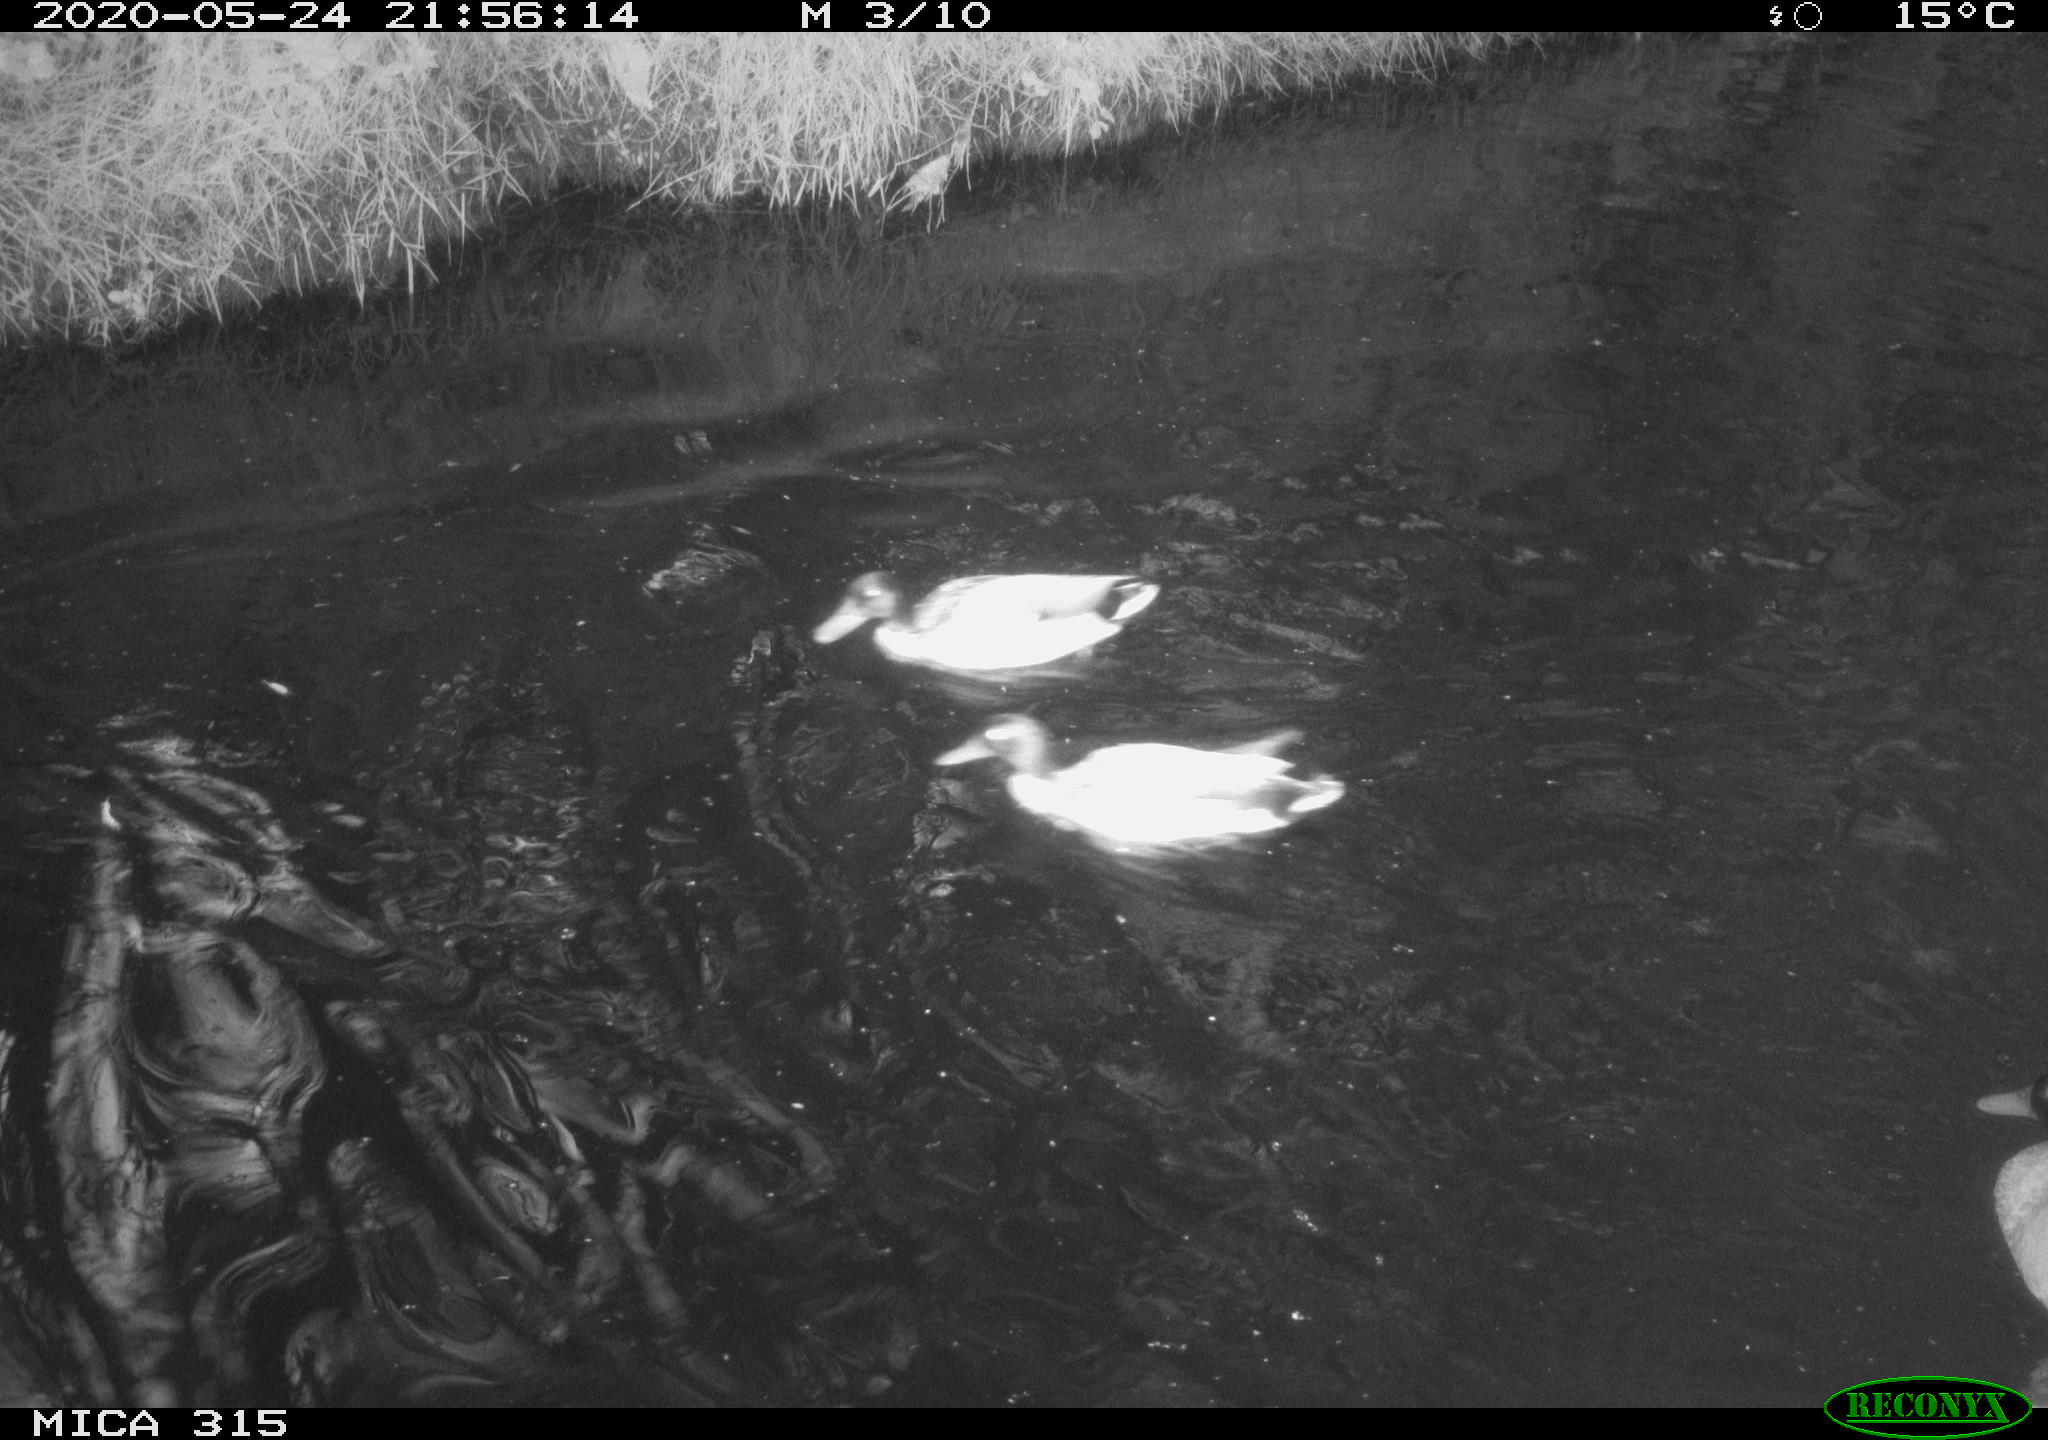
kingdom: Animalia
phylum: Chordata
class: Aves
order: Anseriformes
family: Anatidae
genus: Anas
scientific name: Anas platyrhynchos
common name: Mallard
